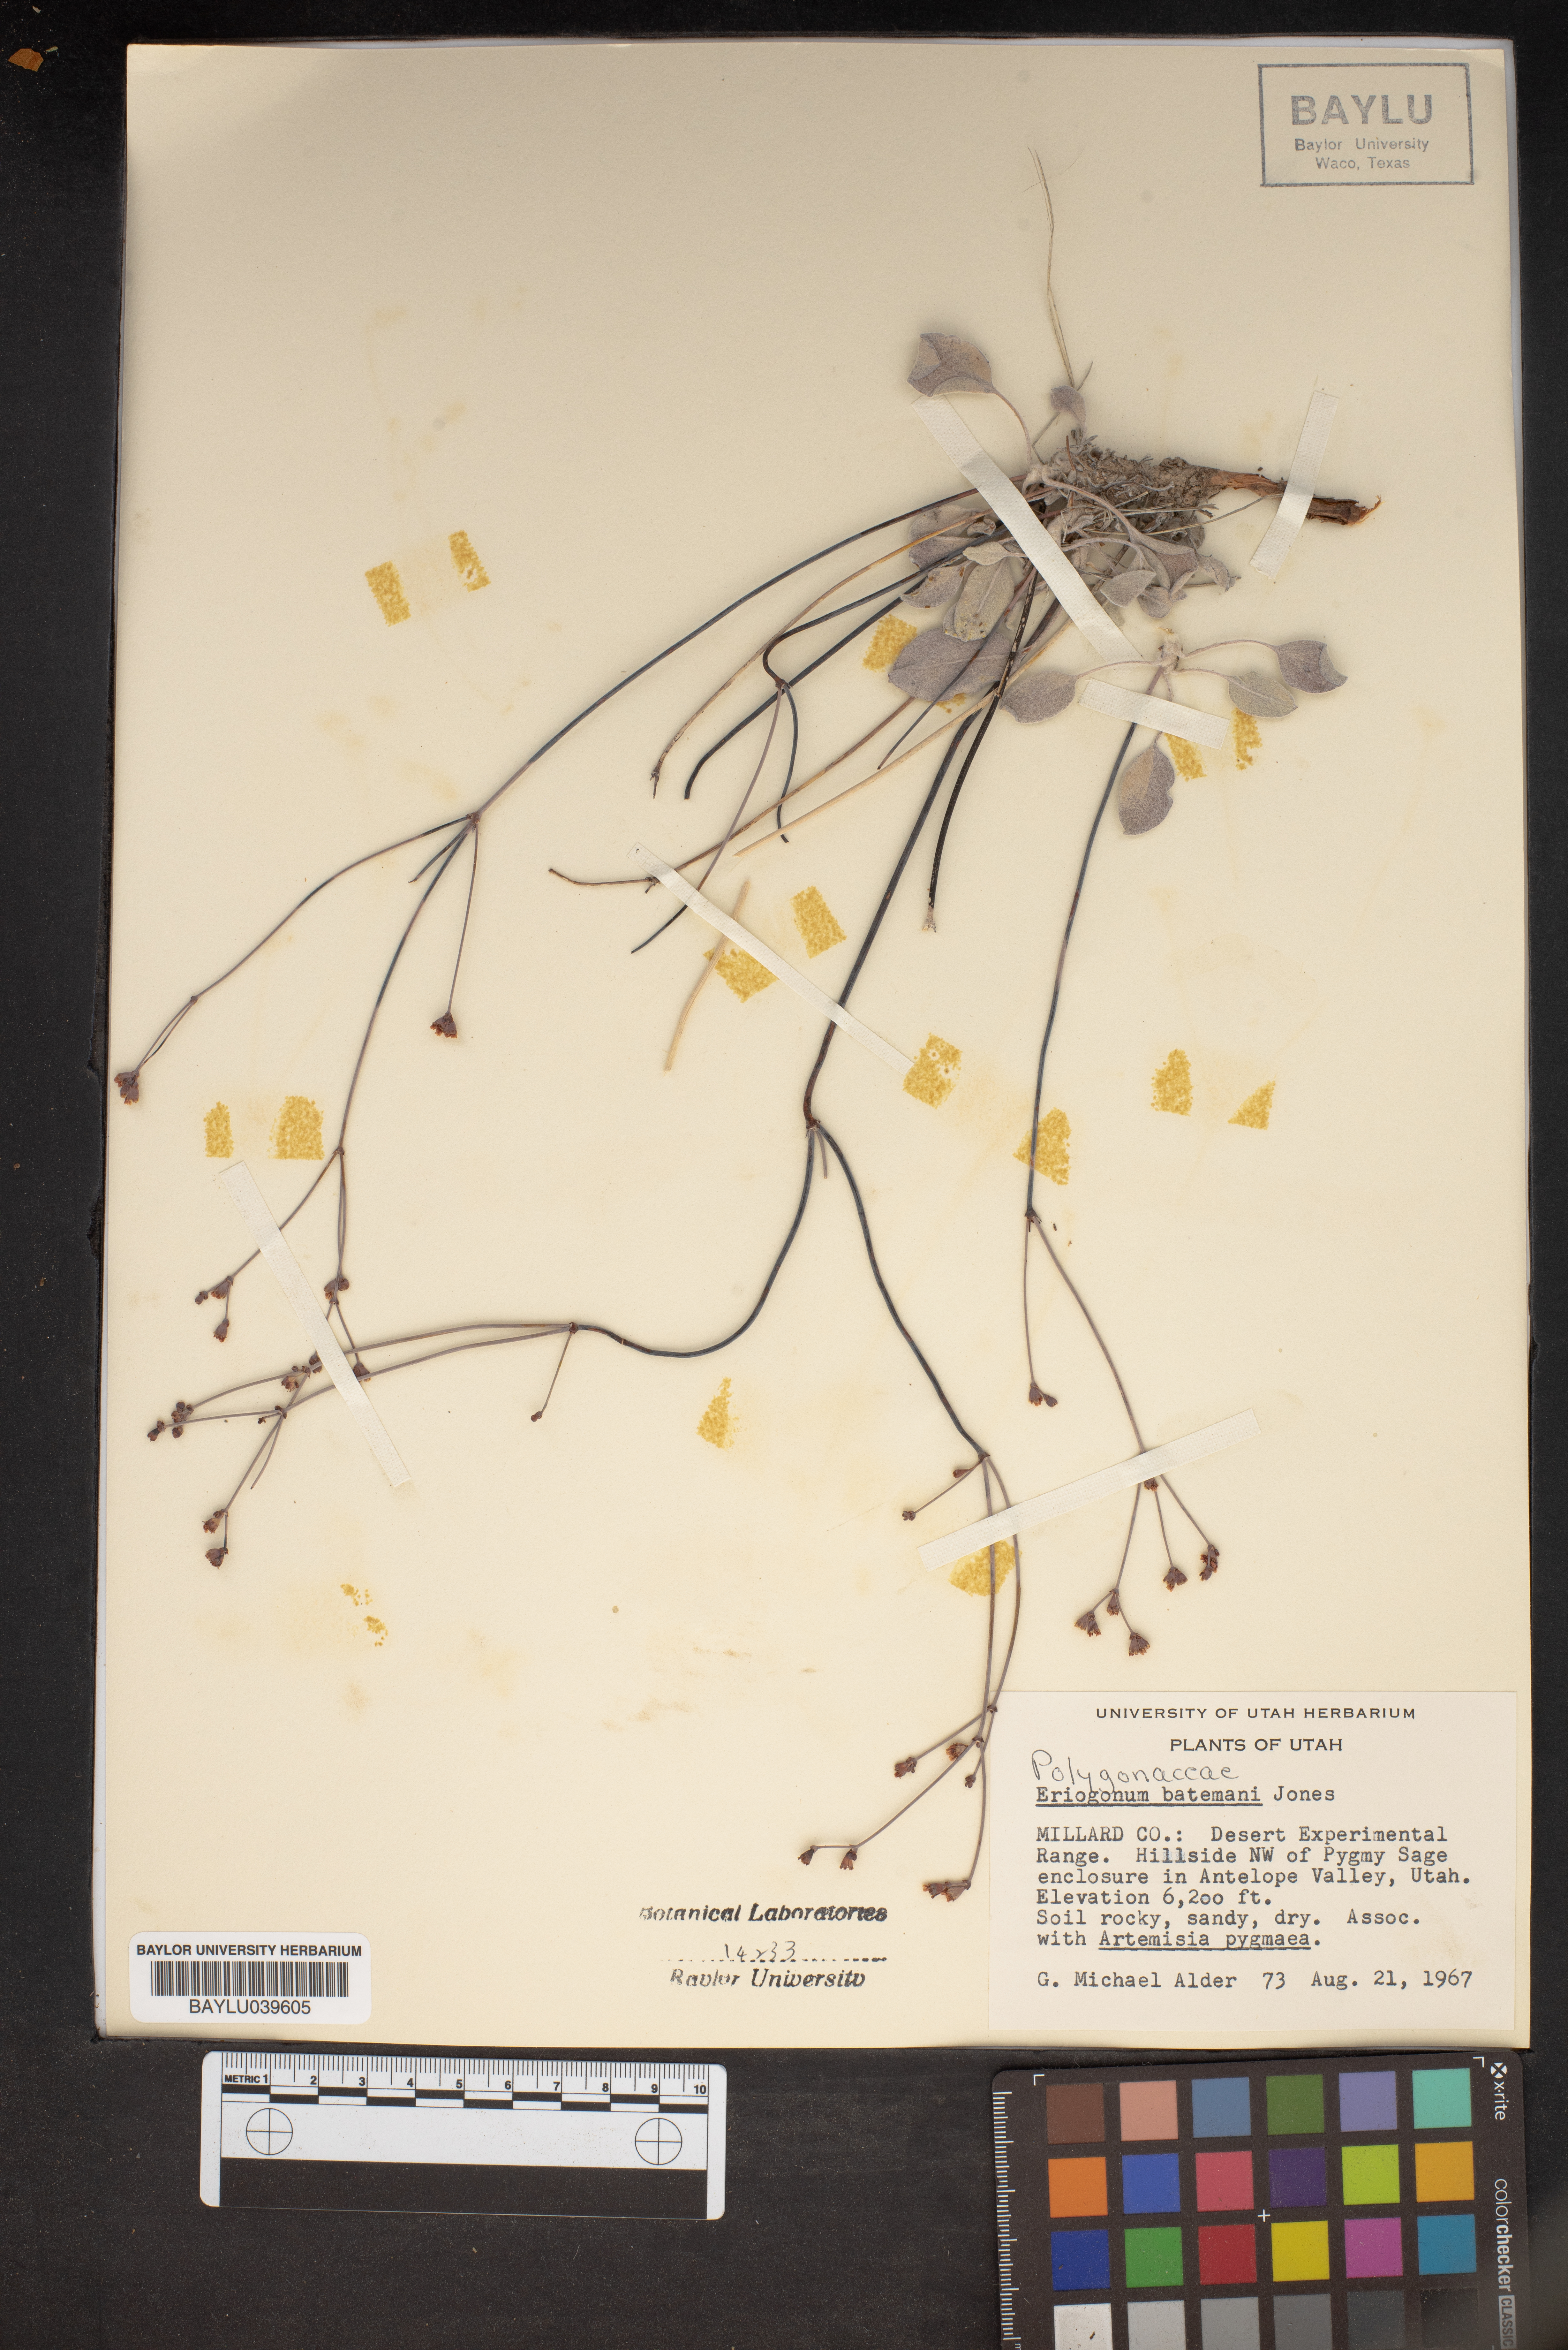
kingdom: Plantae
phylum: Tracheophyta
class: Magnoliopsida
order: Caryophyllales
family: Polygonaceae
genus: Eriogonum
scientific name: Eriogonum batemanii
